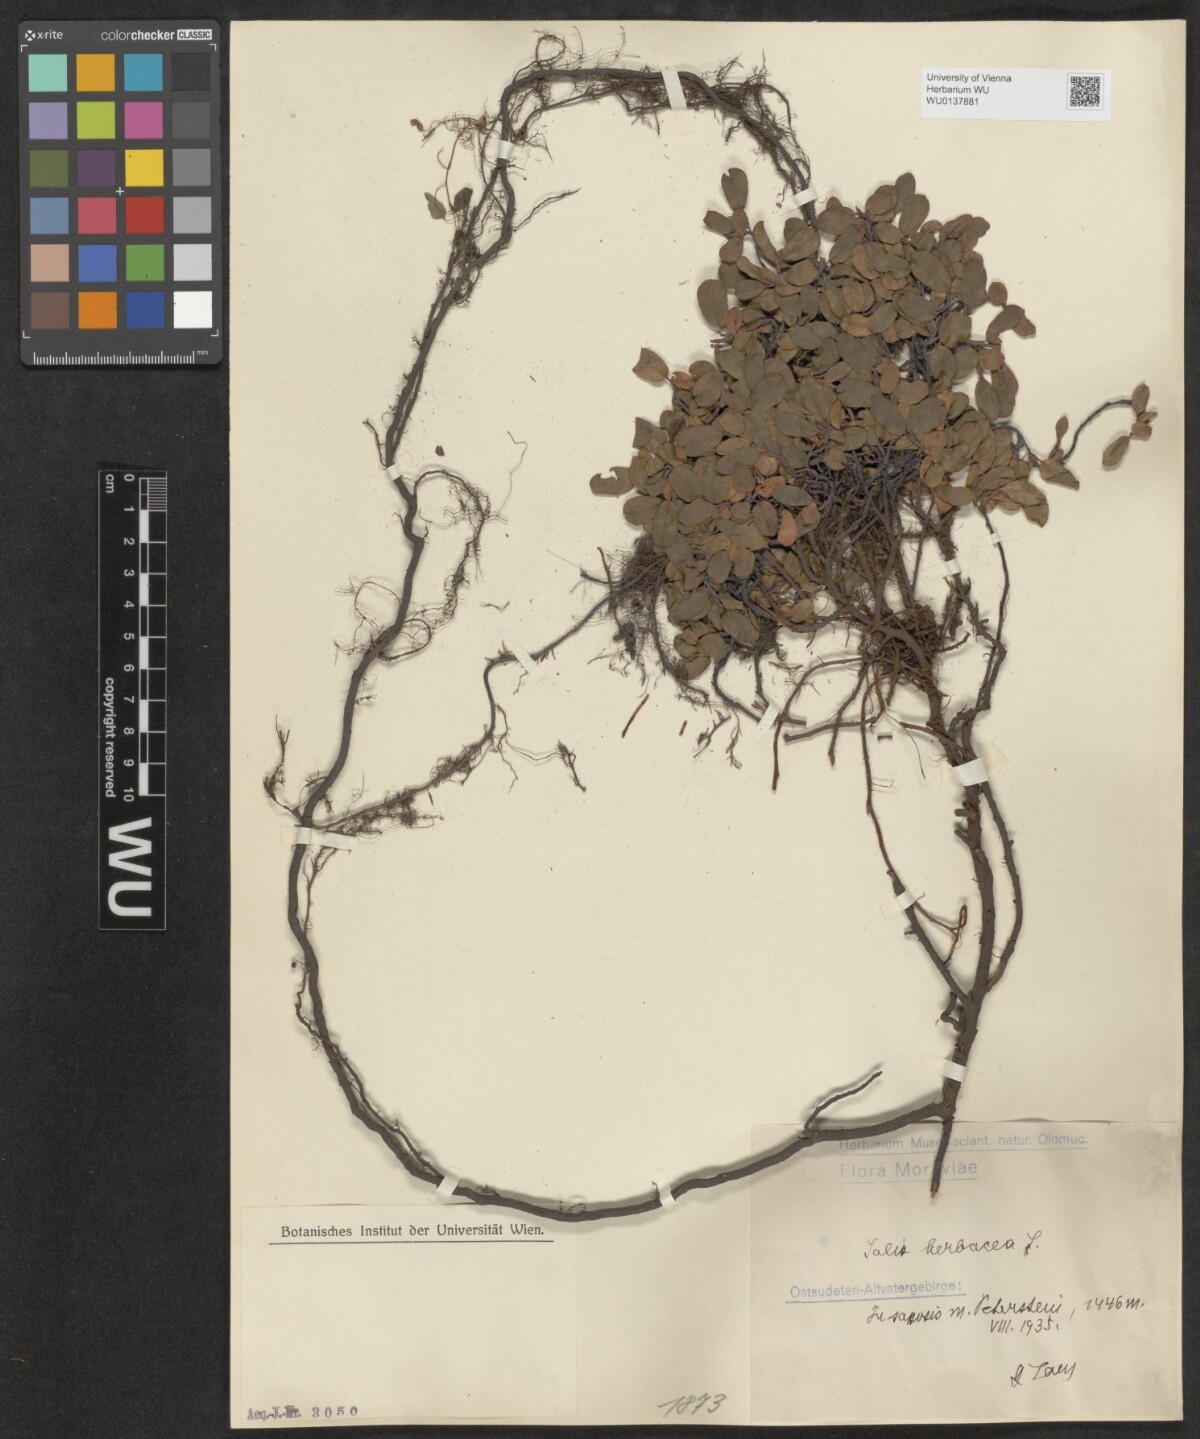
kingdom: Plantae
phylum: Tracheophyta
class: Magnoliopsida
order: Malpighiales
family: Salicaceae
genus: Salix
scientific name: Salix herbacea
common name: Dwarf willow
